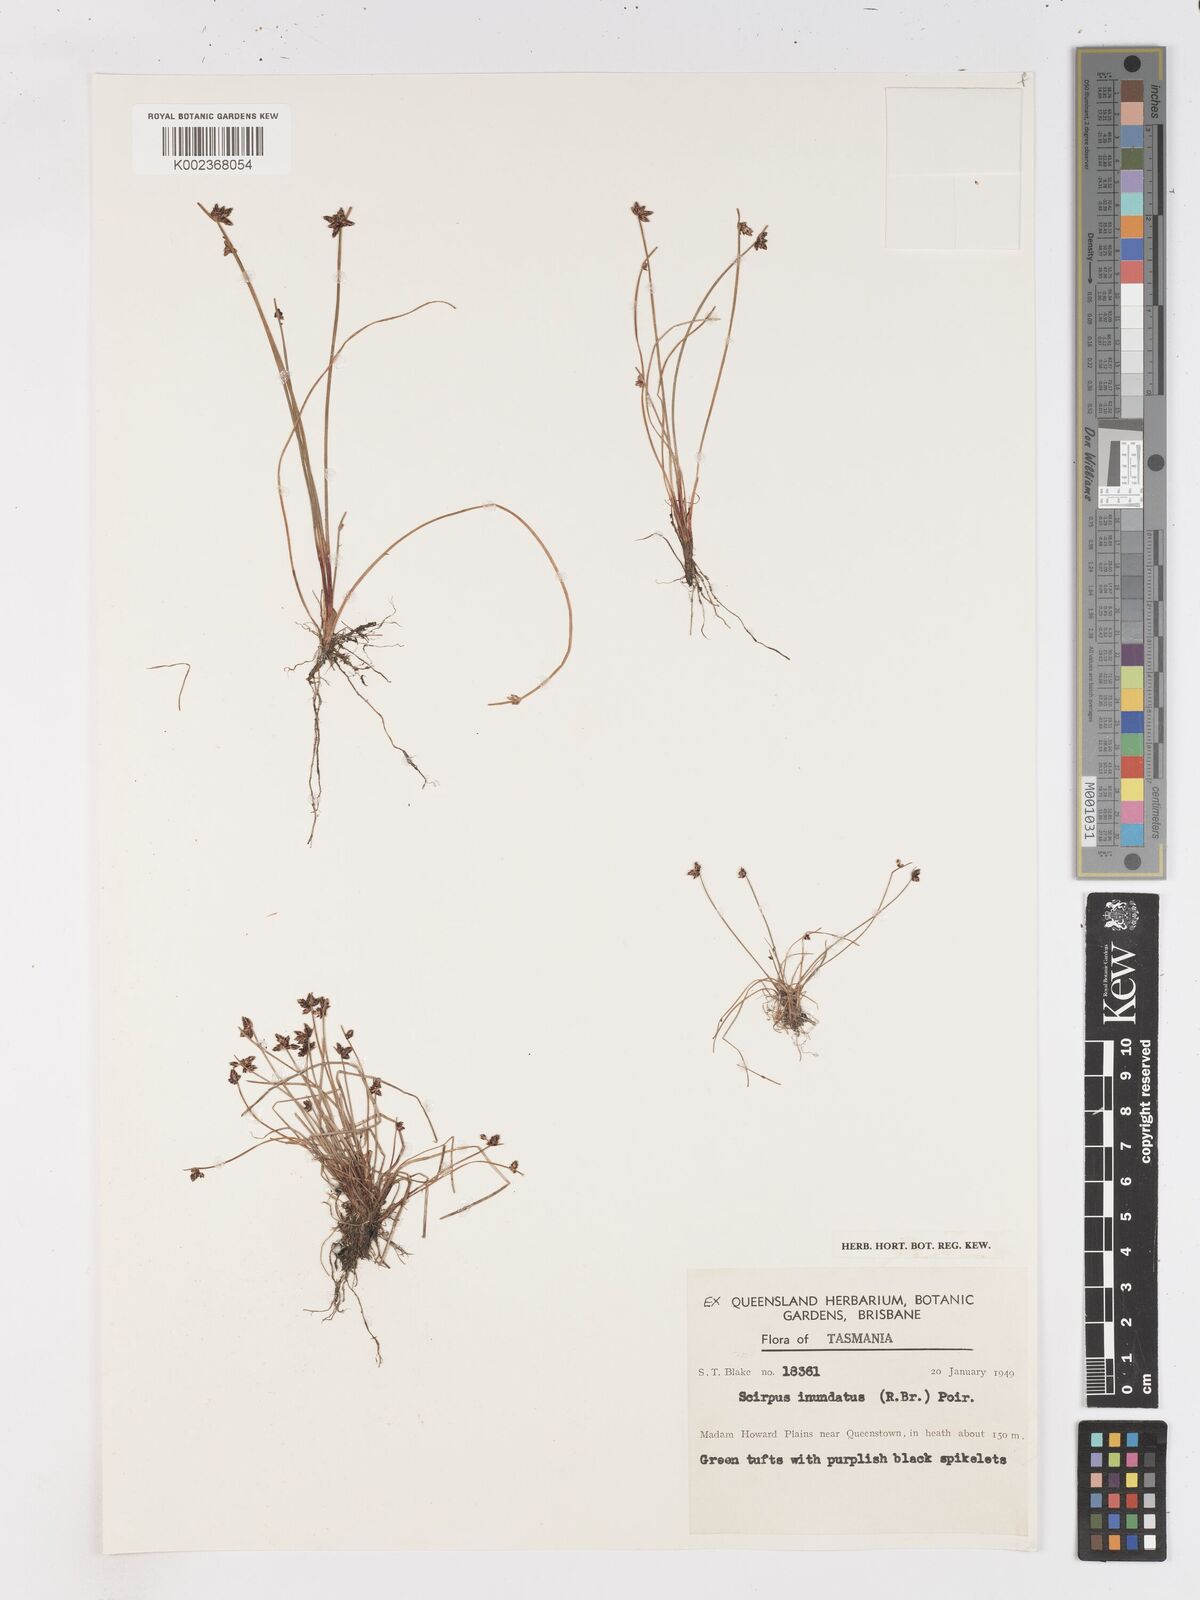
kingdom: Plantae
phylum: Tracheophyta
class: Liliopsida
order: Poales
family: Cyperaceae
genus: Isolepis
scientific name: Isolepis inundata
